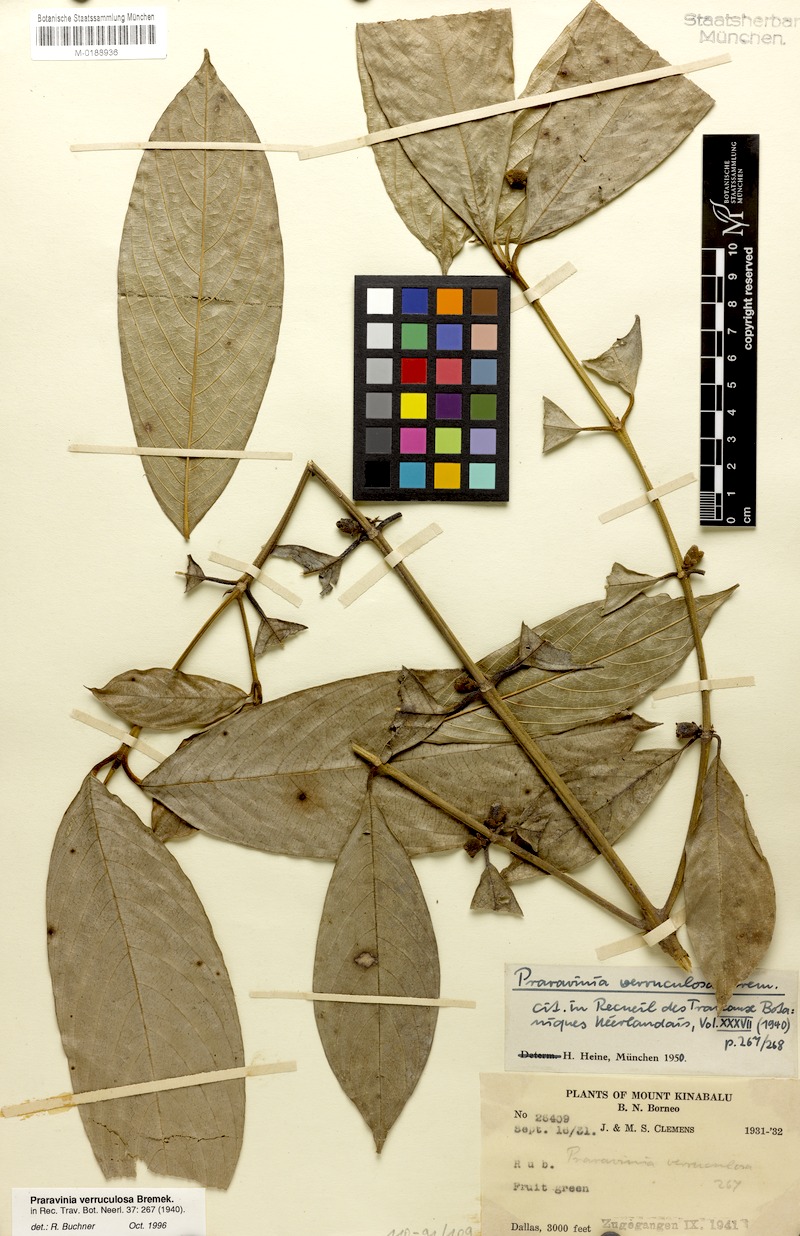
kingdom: Plantae
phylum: Tracheophyta
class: Magnoliopsida
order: Gentianales
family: Rubiaceae
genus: Praravinia
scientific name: Praravinia verruculosa
